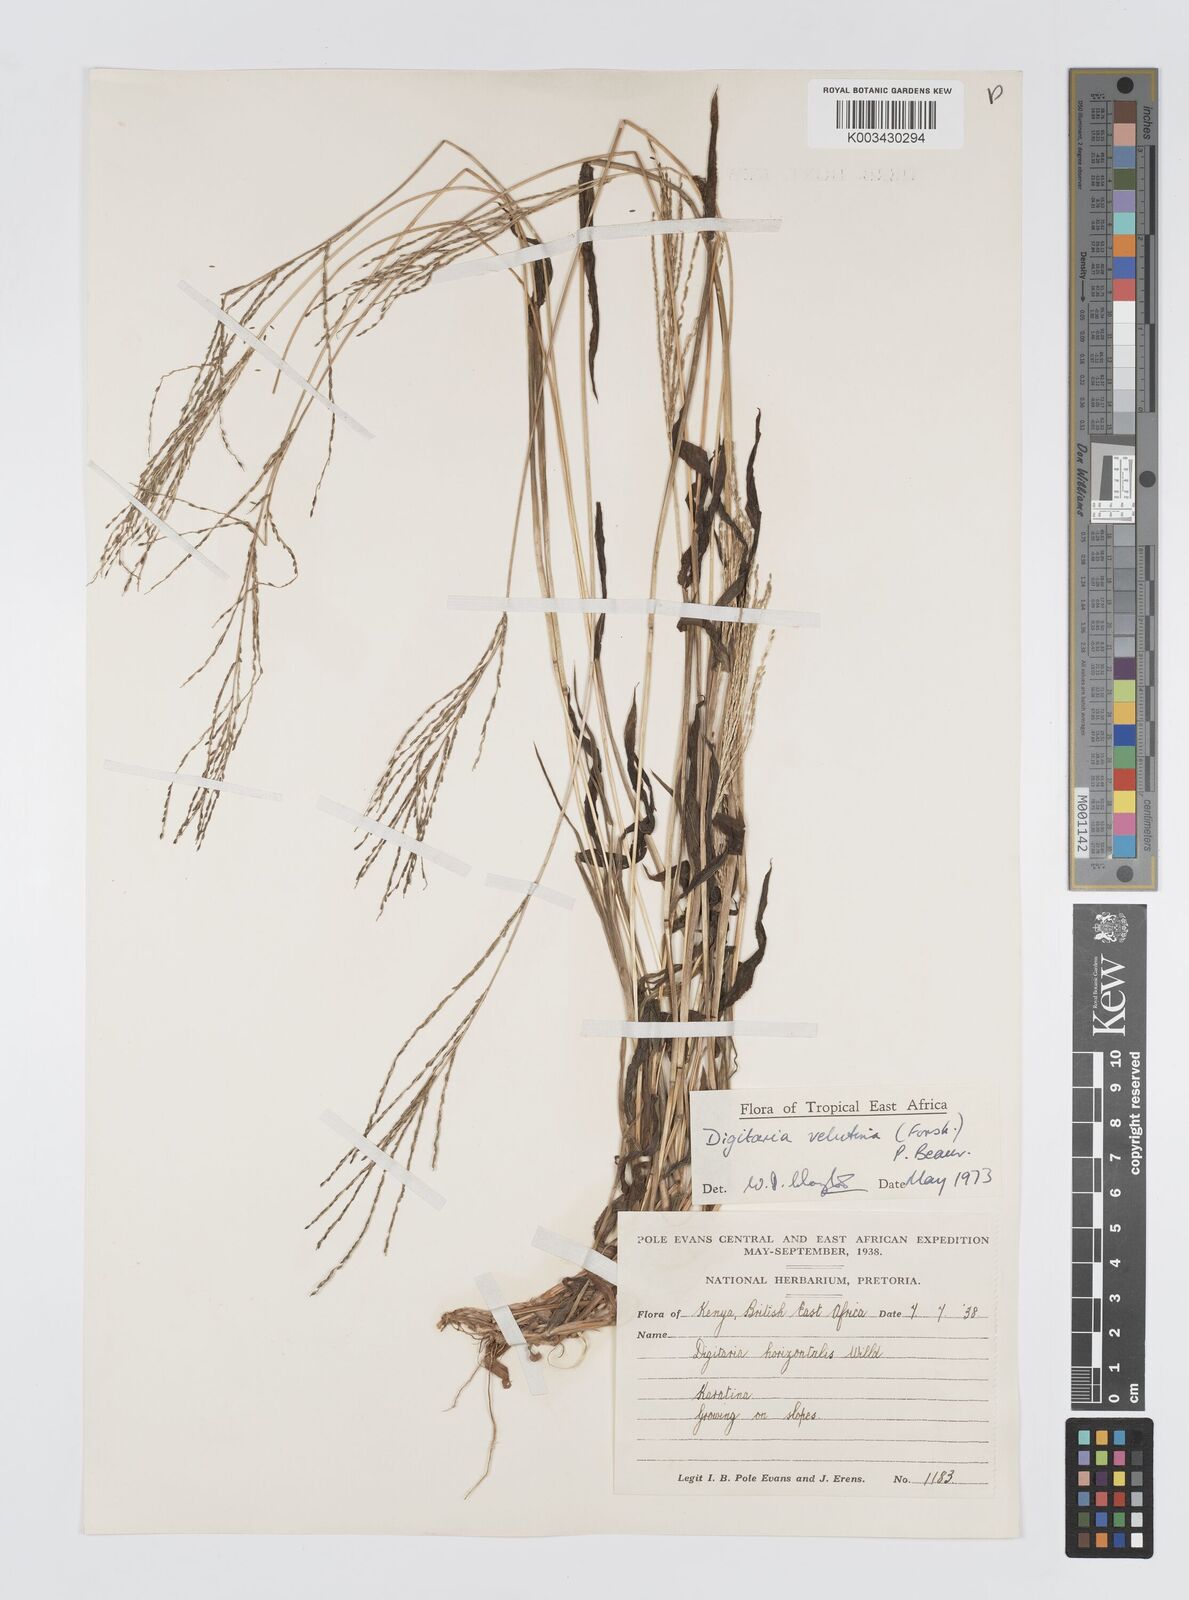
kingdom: Plantae
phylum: Tracheophyta
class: Liliopsida
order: Poales
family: Poaceae
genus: Digitaria
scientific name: Digitaria velutina
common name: Long-plume finger grass
